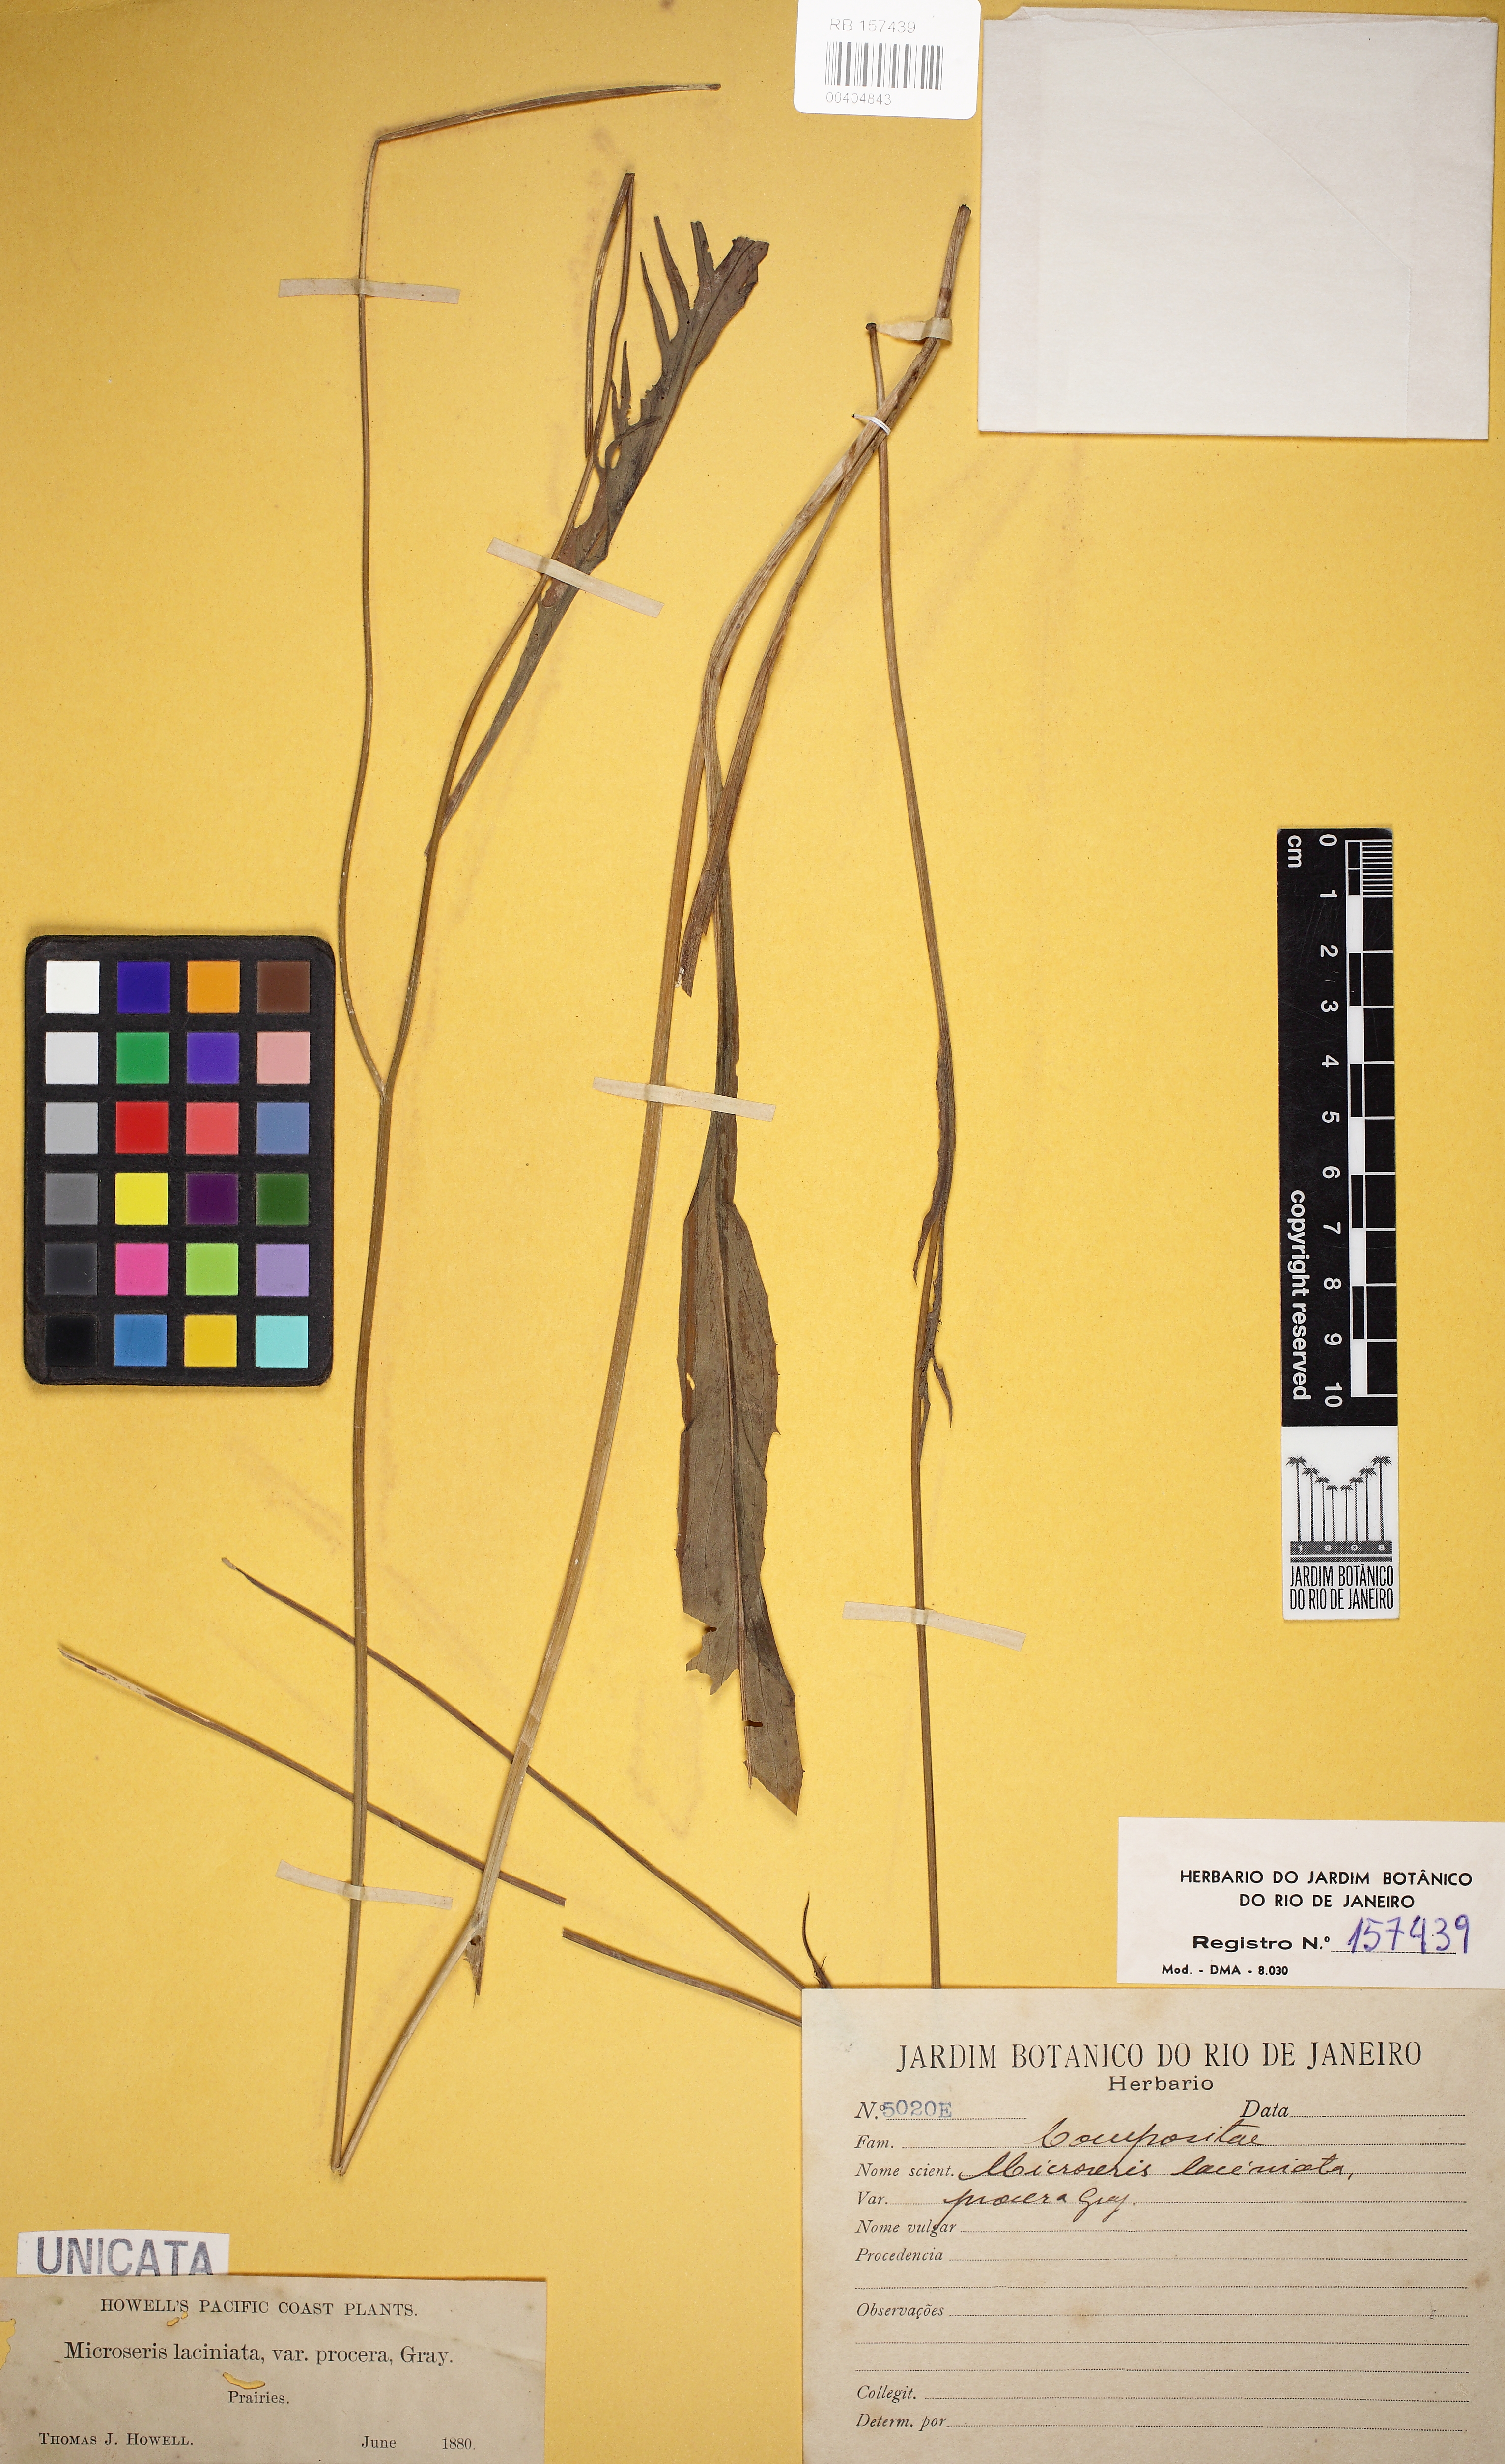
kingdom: Plantae
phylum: Tracheophyta
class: Magnoliopsida
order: Asterales
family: Asteraceae
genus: Microseris
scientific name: Microseris laciniata
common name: Cut-leaf microseris
